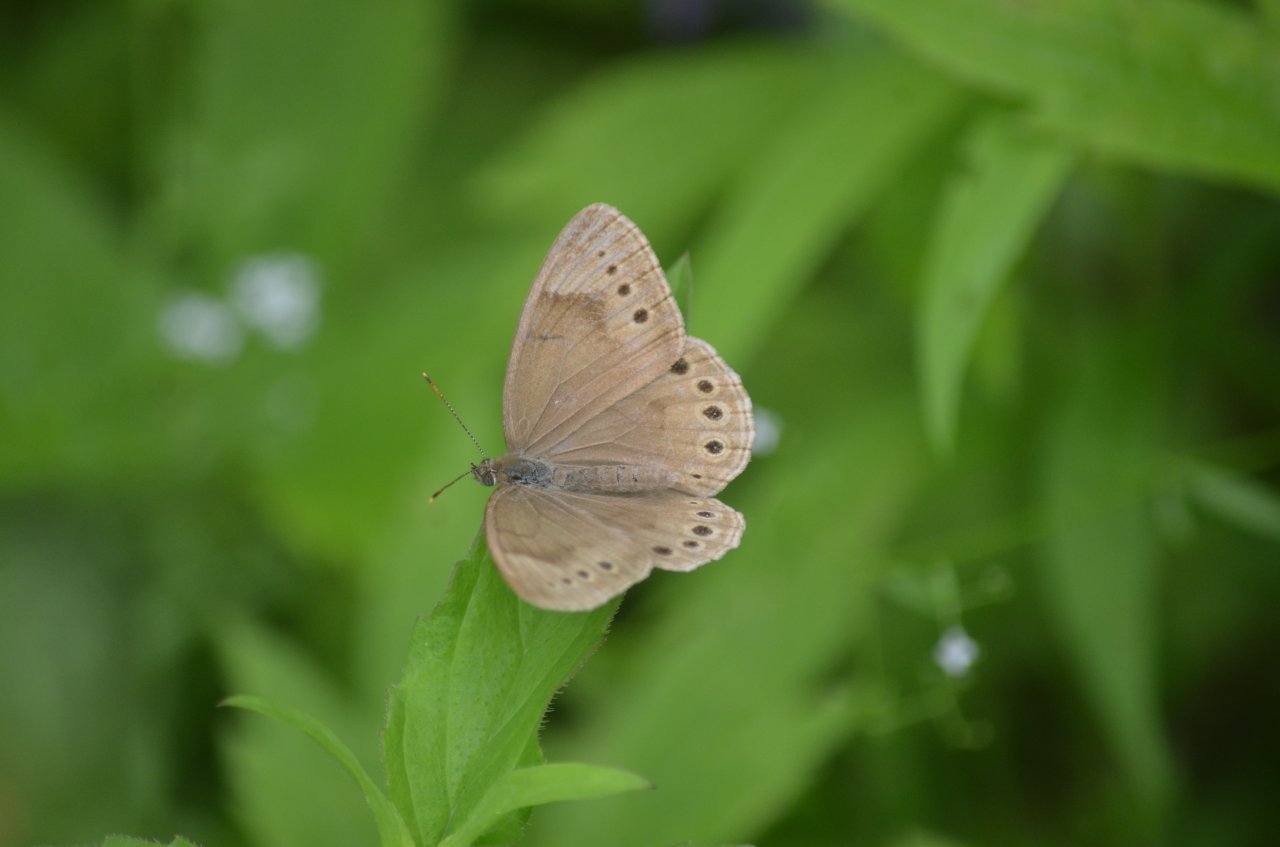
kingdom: Animalia
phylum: Arthropoda
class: Insecta
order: Lepidoptera
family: Nymphalidae
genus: Lethe
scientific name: Lethe eurydice
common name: Eyed Brown
